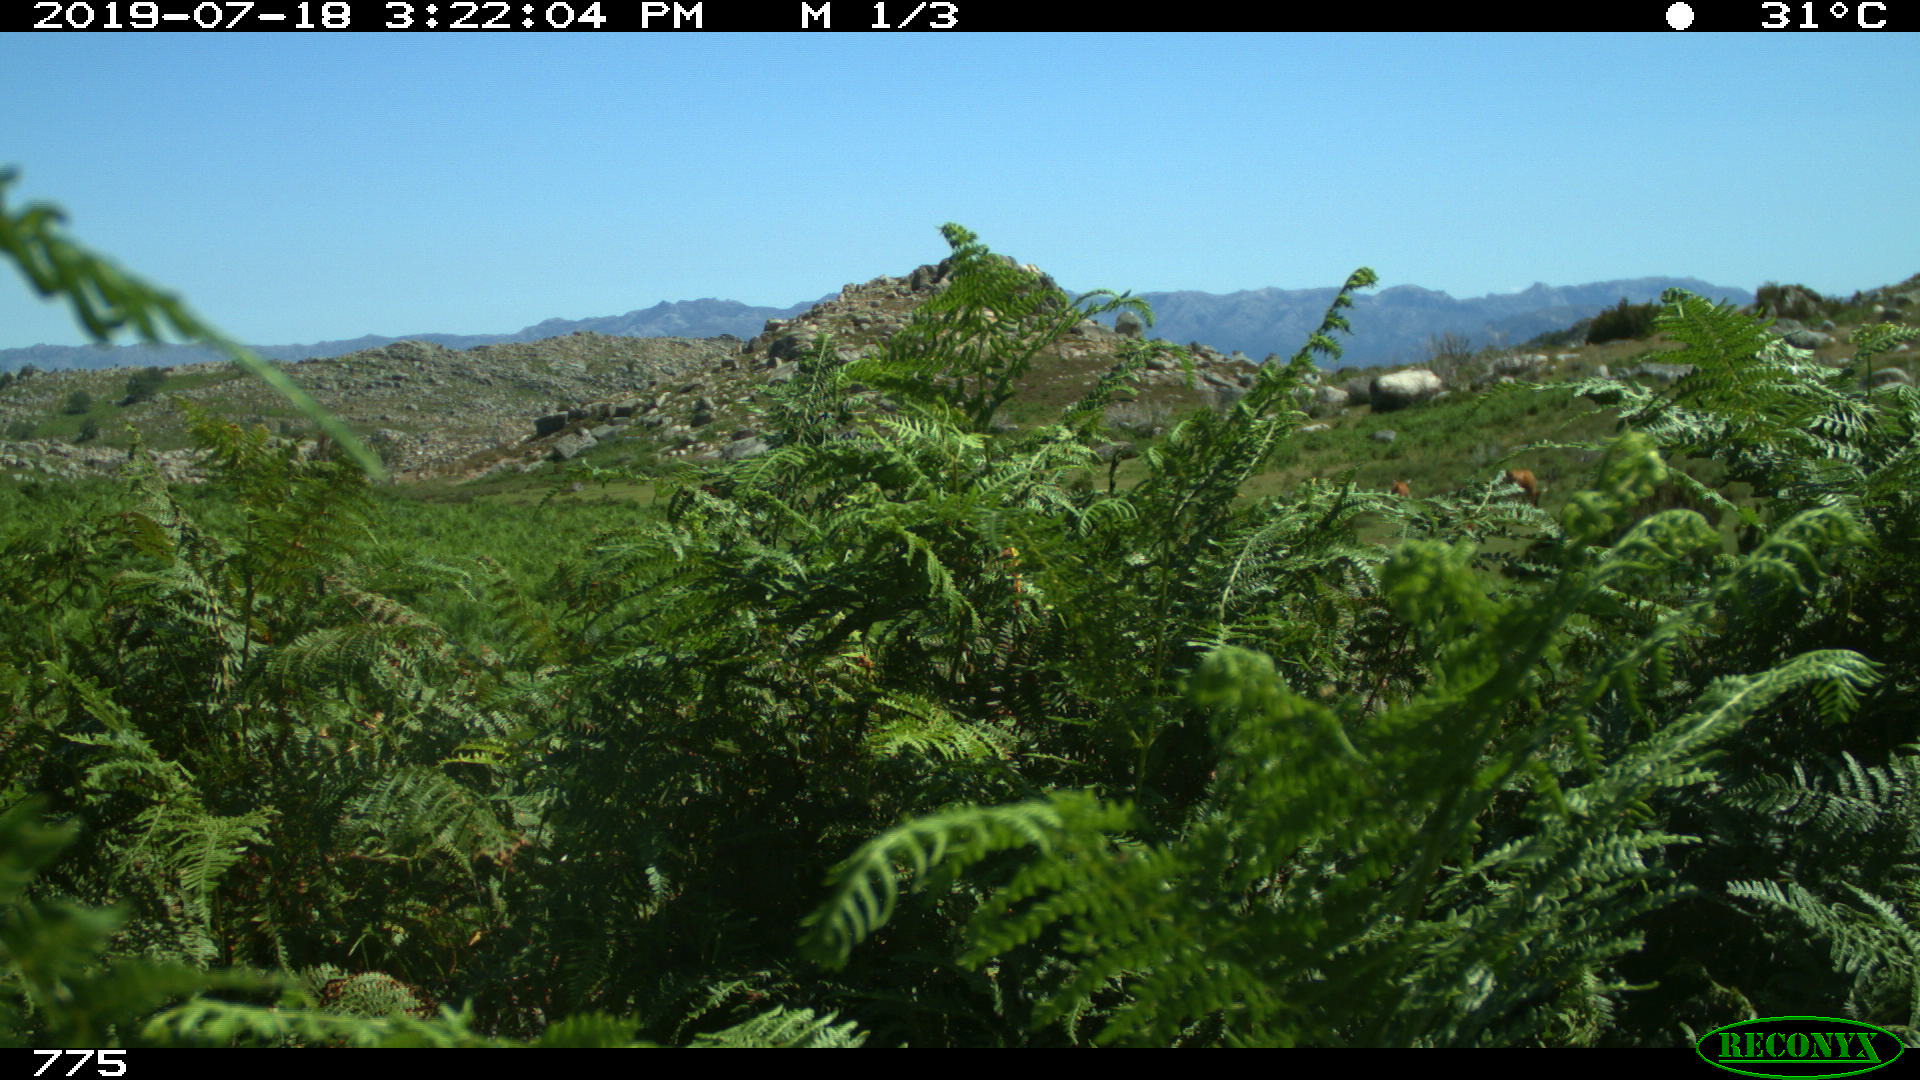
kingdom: Animalia
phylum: Chordata
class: Mammalia
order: Artiodactyla
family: Bovidae
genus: Bos
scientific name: Bos taurus
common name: Domesticated cattle
